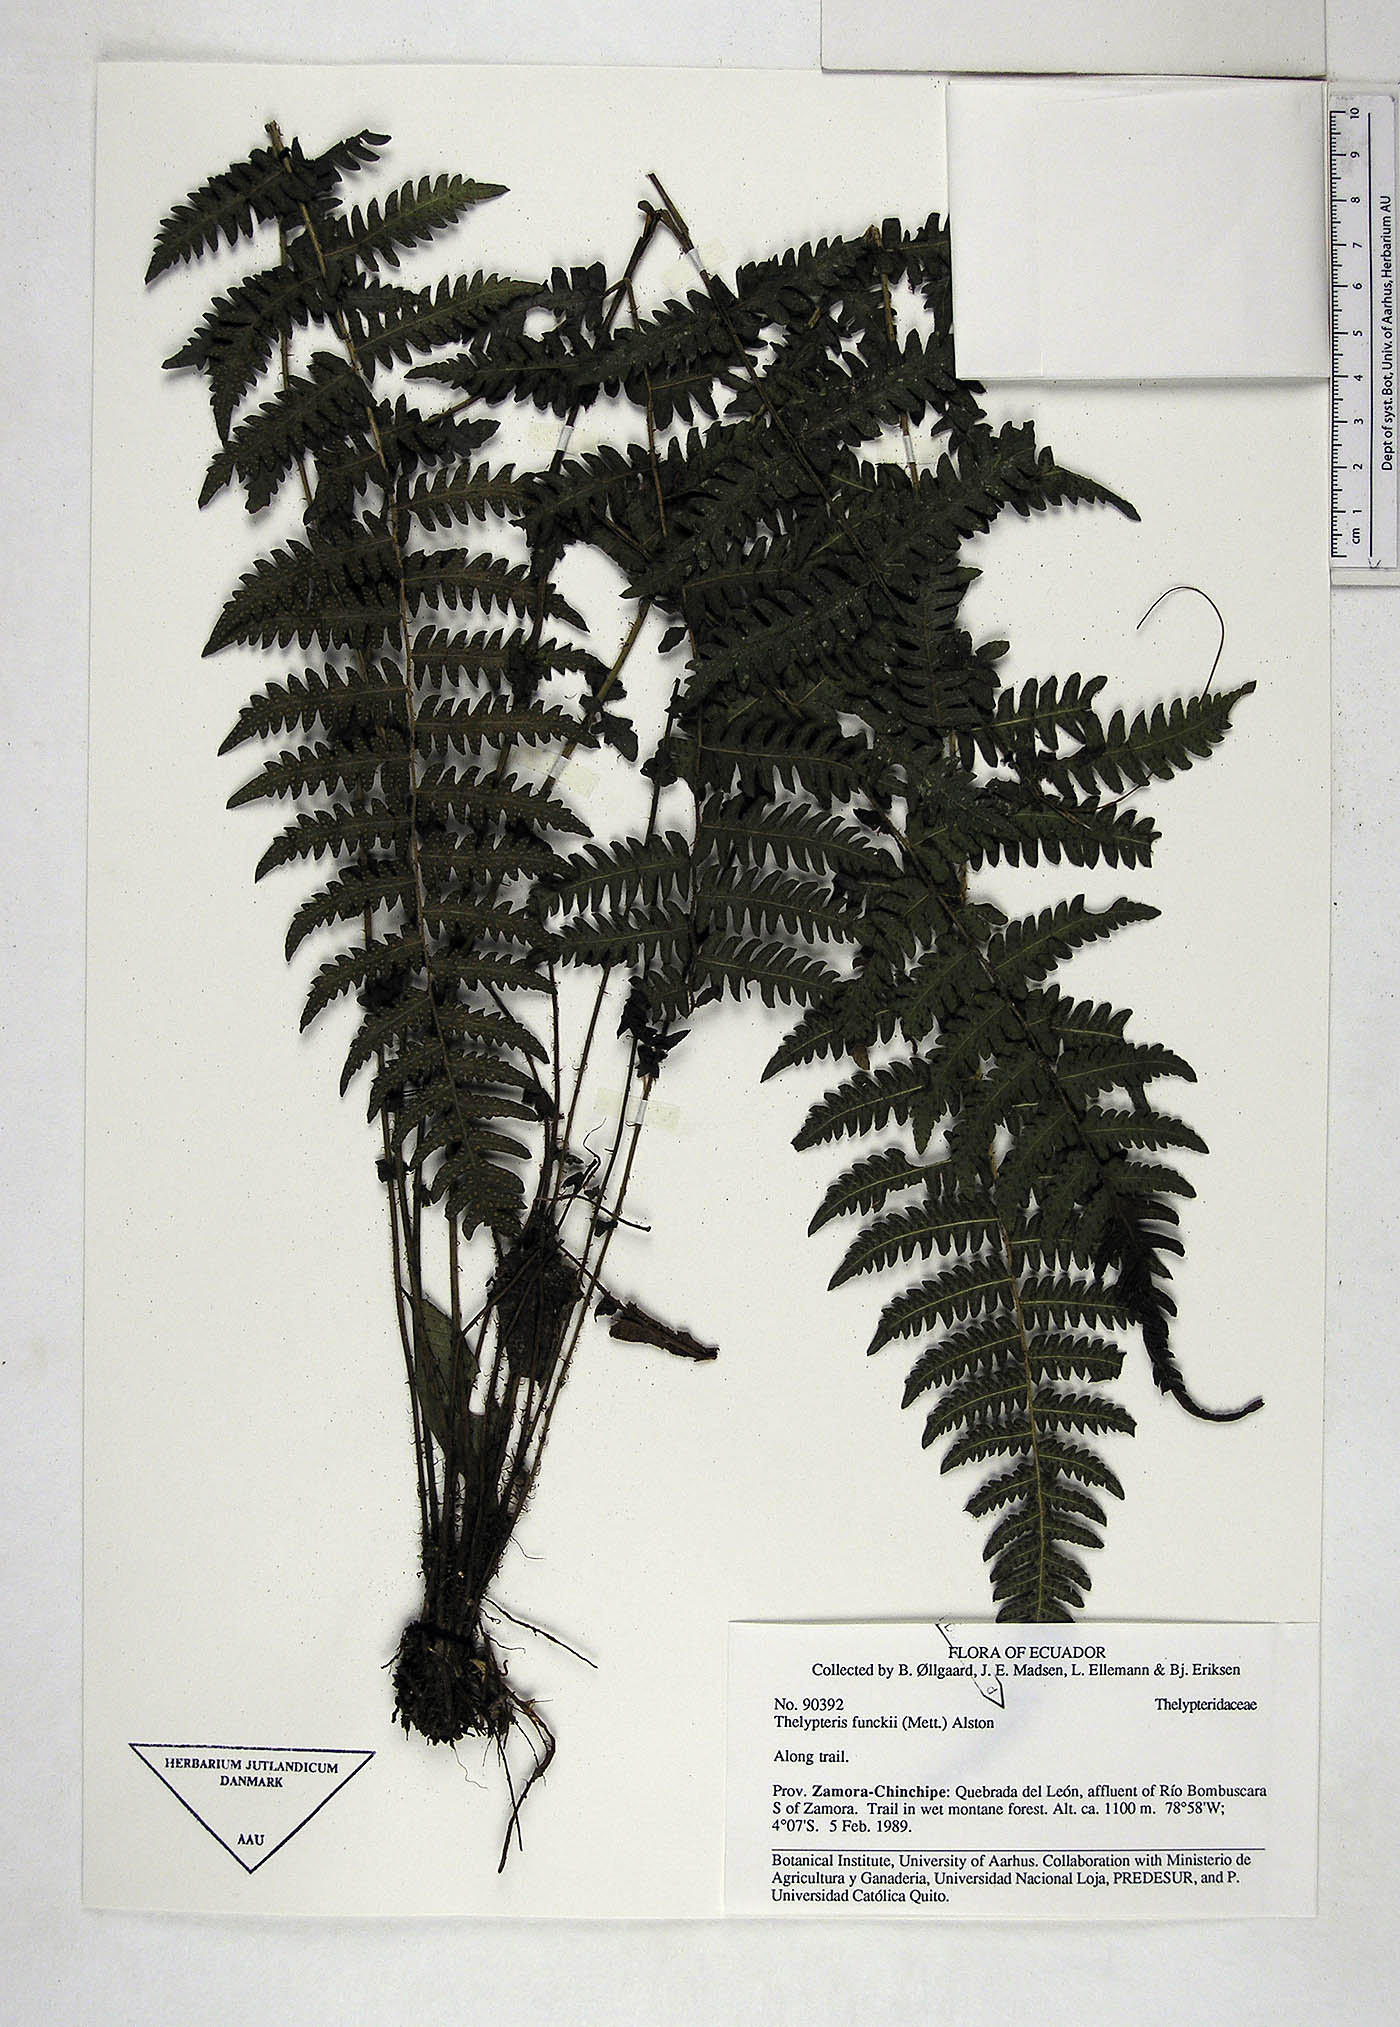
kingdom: Plantae
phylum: Tracheophyta
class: Polypodiopsida
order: Polypodiales
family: Thelypteridaceae
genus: Amauropelta
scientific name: Amauropelta funckii
